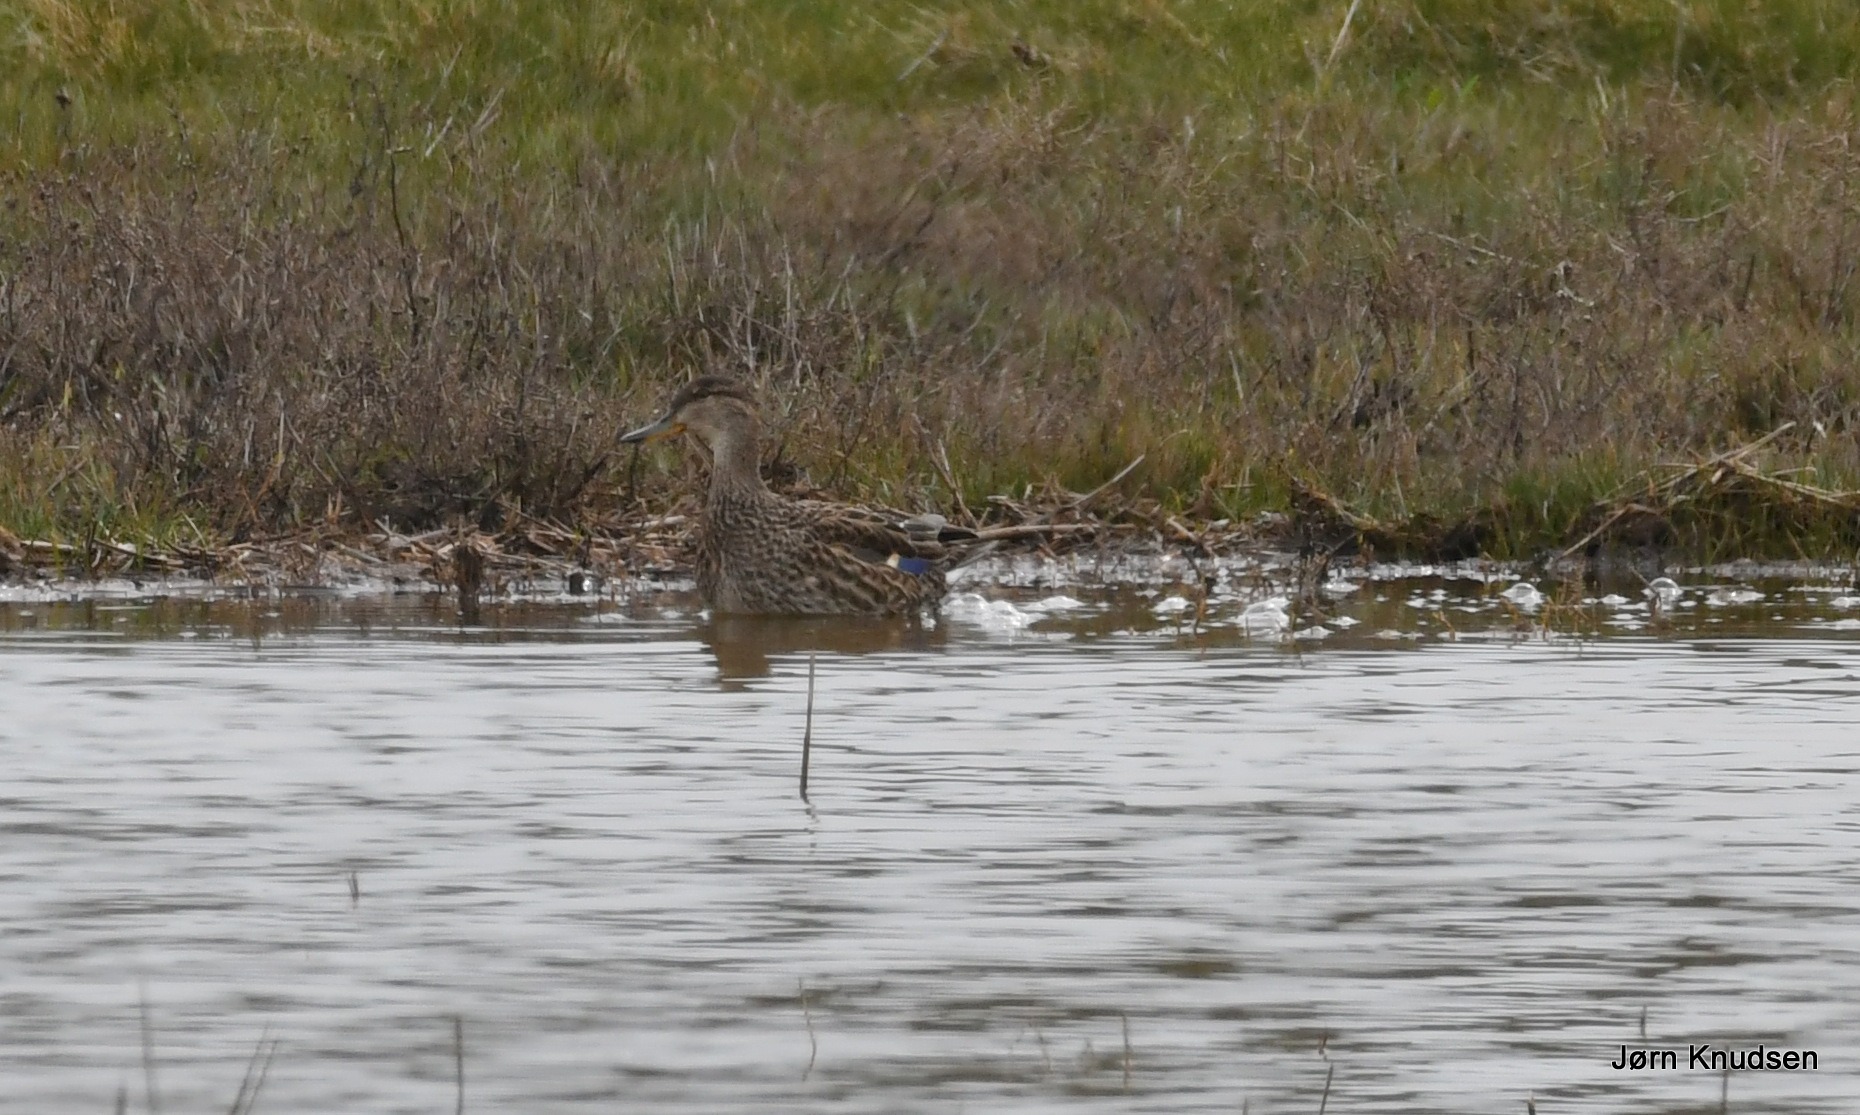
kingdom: Animalia
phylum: Chordata
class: Aves
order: Anseriformes
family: Anatidae
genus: Anas
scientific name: Anas platyrhynchos
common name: Gråand
